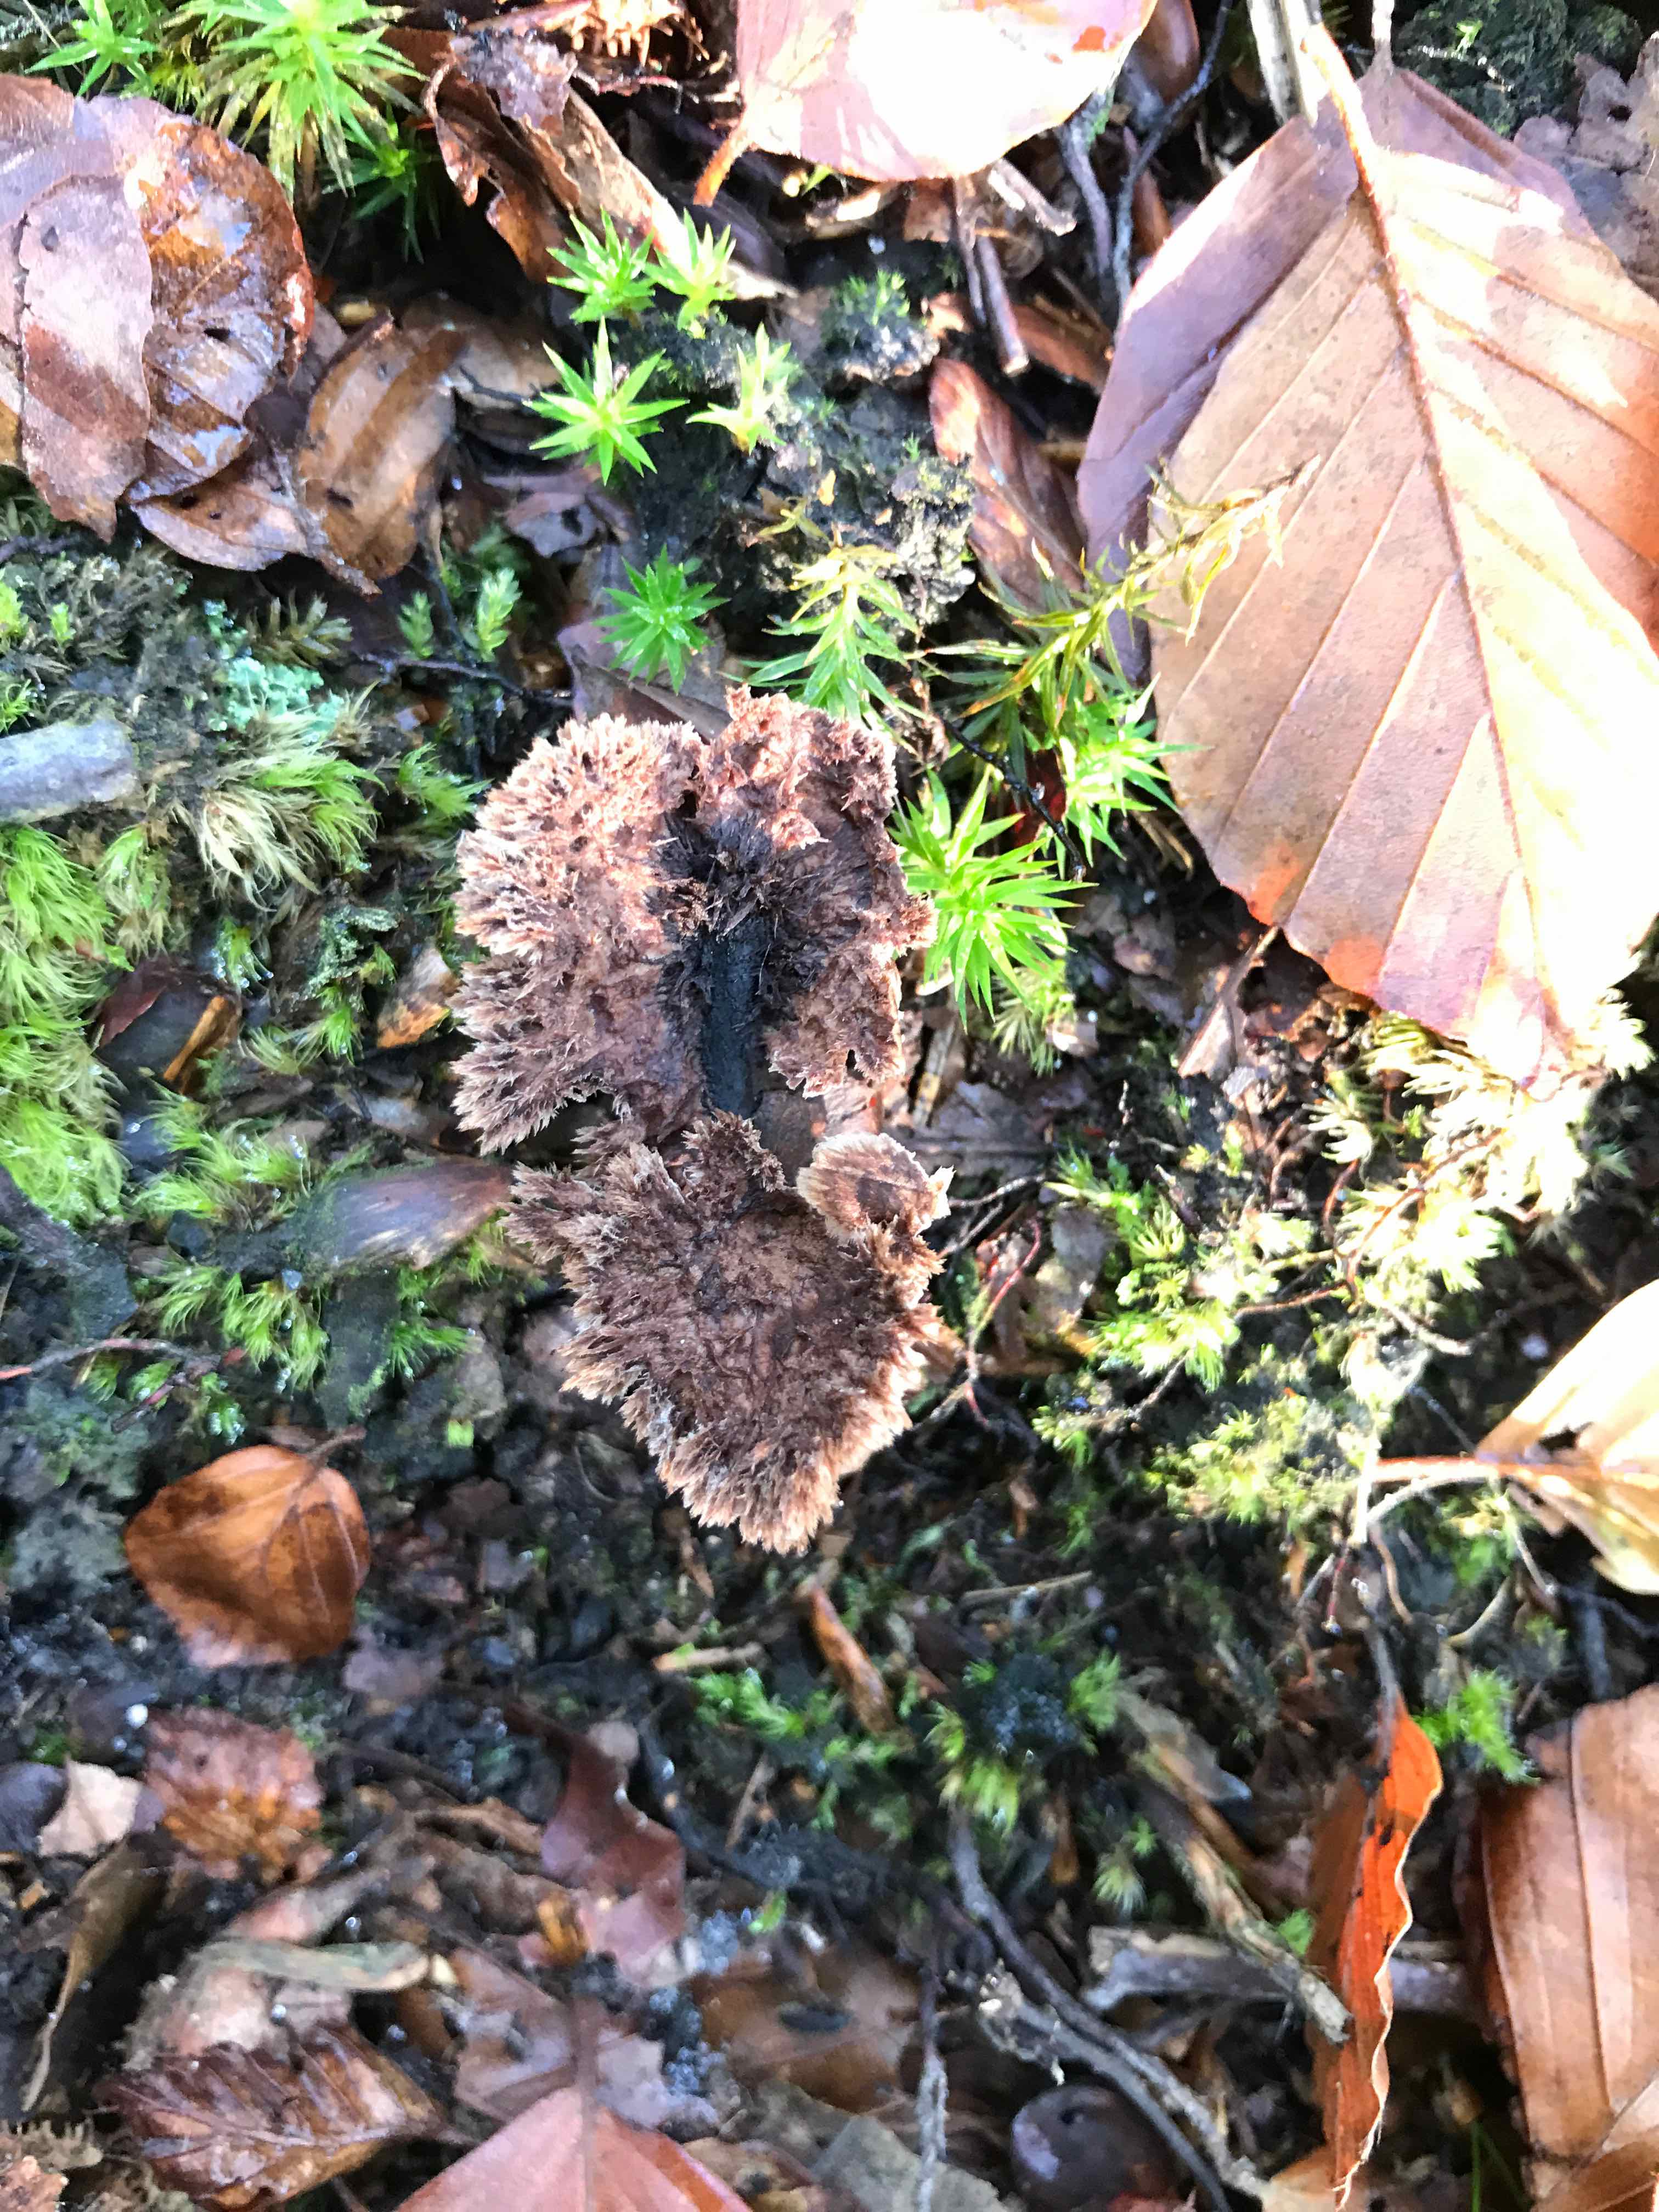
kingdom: Fungi
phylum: Basidiomycota
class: Agaricomycetes
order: Thelephorales
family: Thelephoraceae
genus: Thelephora
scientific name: Thelephora terrestris
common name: fliget frynsesvamp
